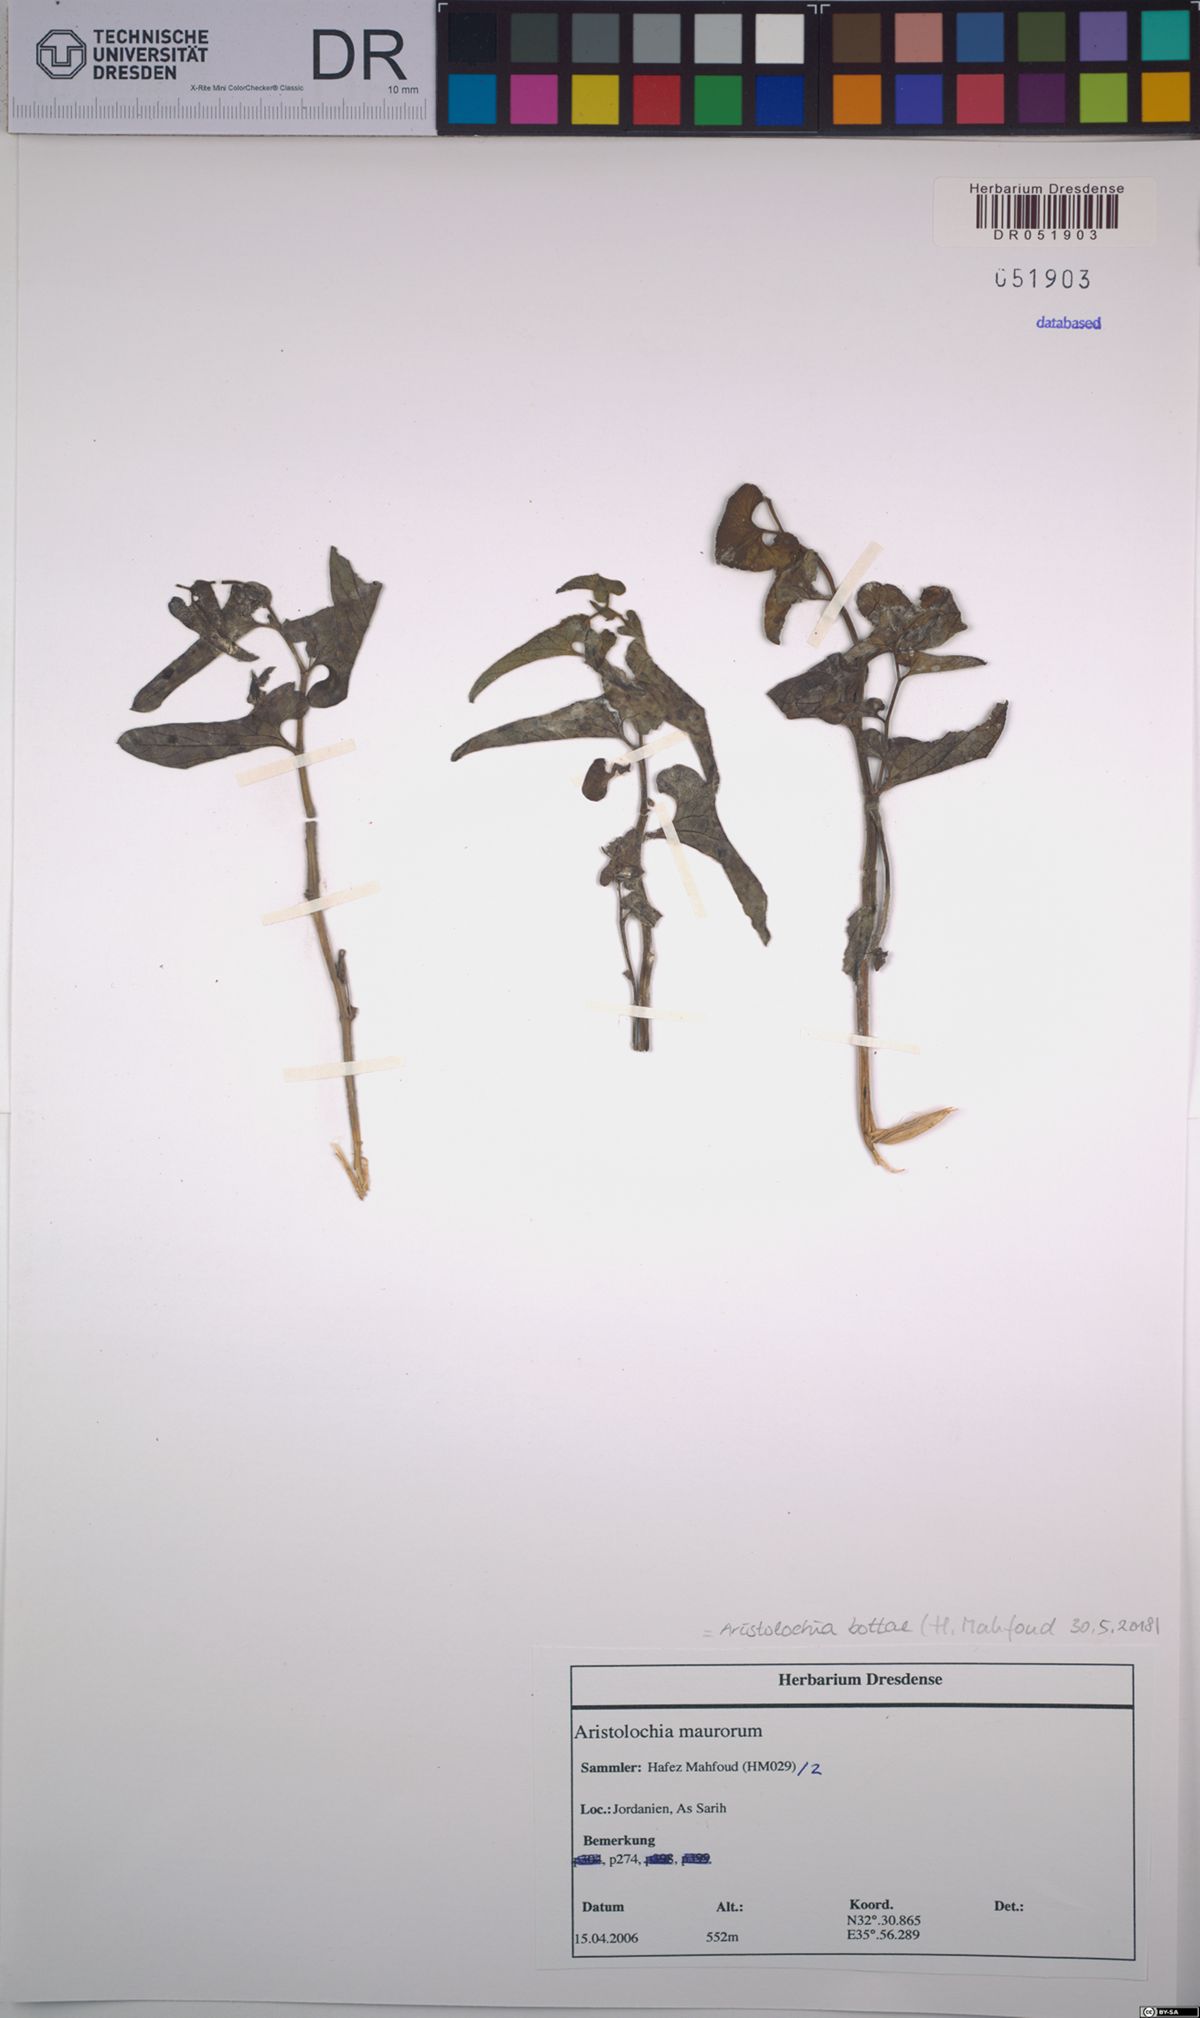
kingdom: Plantae
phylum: Tracheophyta
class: Magnoliopsida
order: Piperales
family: Aristolochiaceae
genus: Aristolochia
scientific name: Aristolochia bottae
